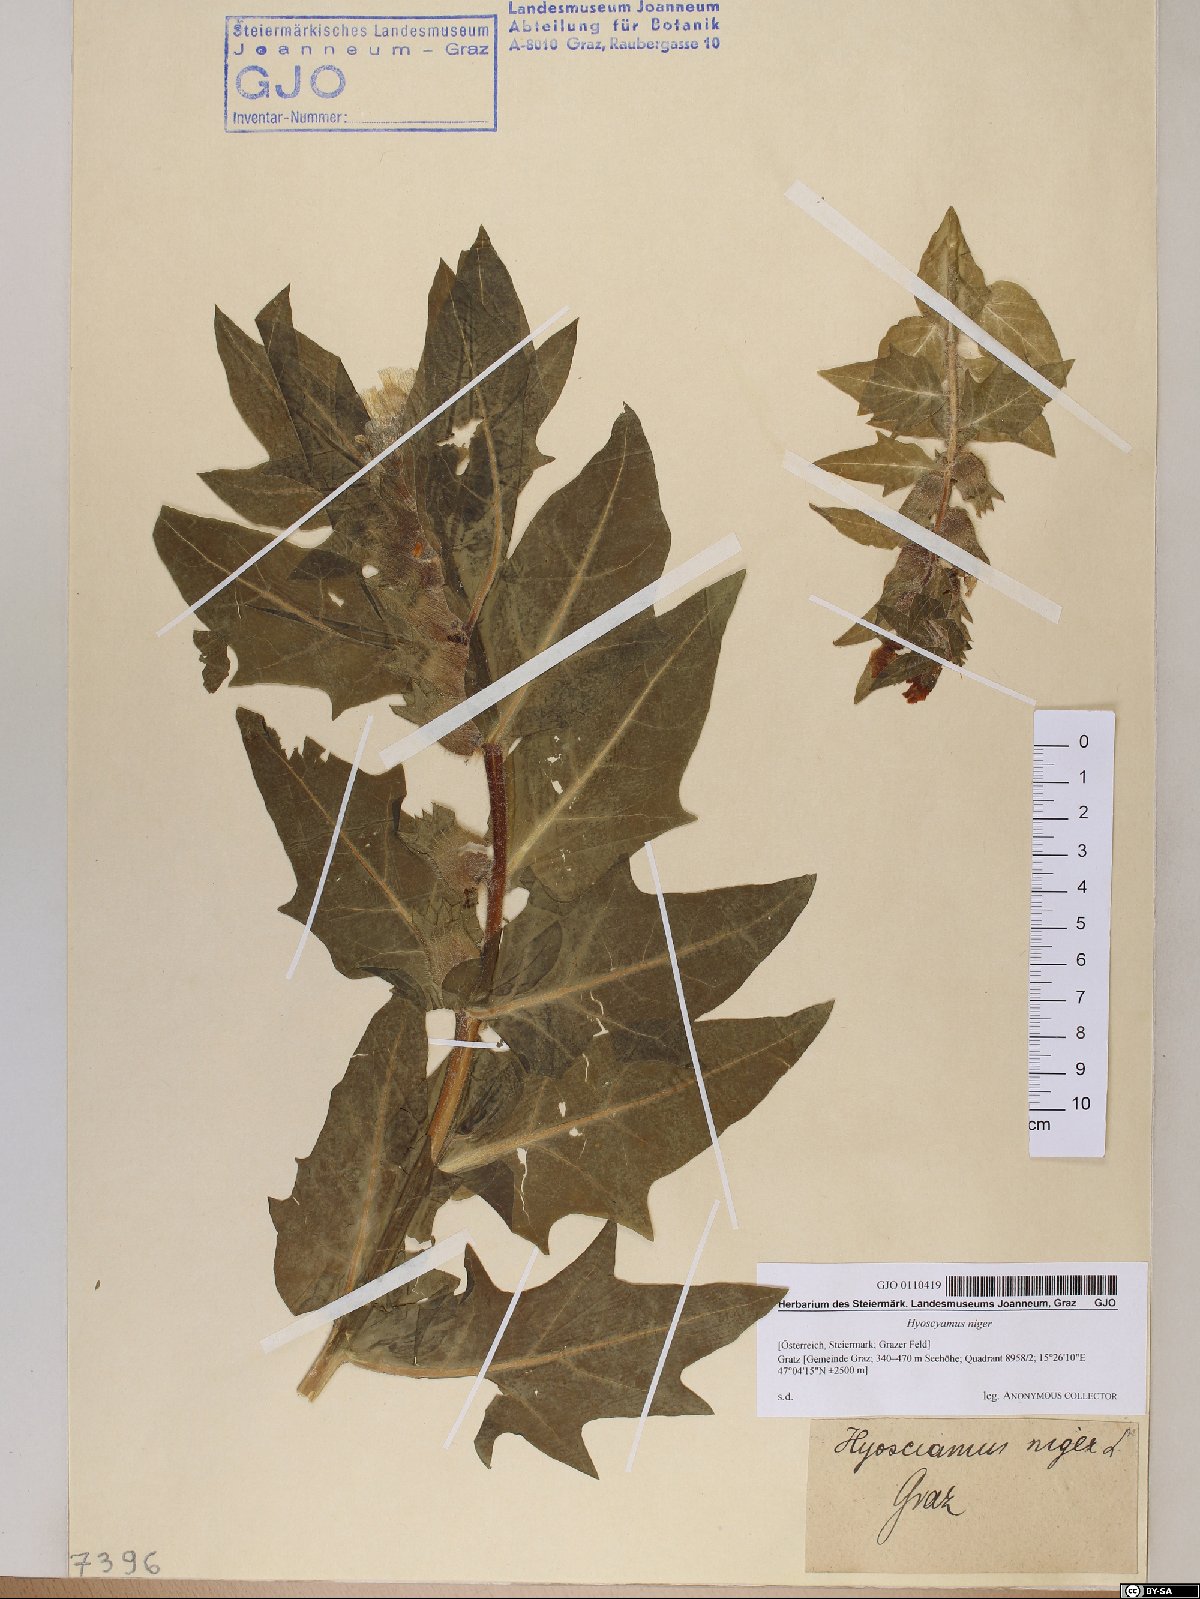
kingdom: Plantae
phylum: Tracheophyta
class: Magnoliopsida
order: Solanales
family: Solanaceae
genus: Hyoscyamus
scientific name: Hyoscyamus niger
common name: Henbane
